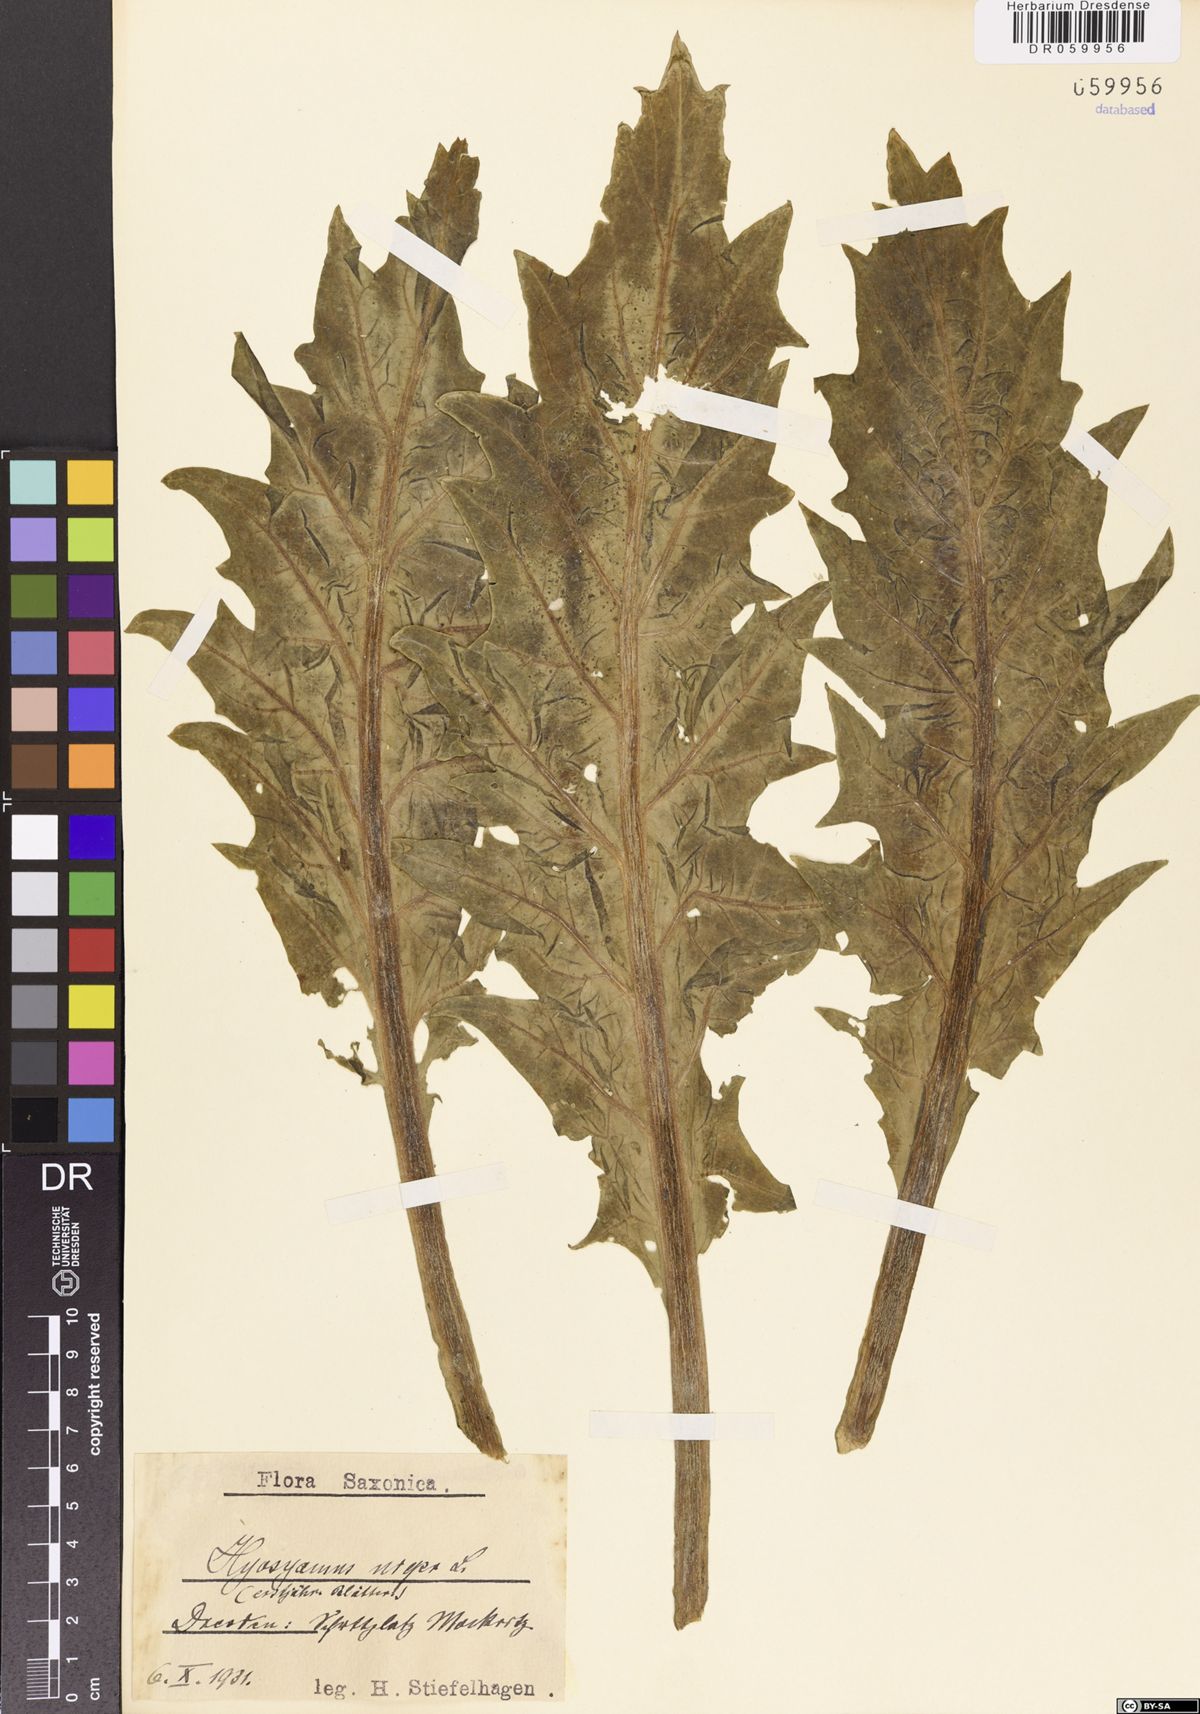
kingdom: Plantae
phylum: Tracheophyta
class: Magnoliopsida
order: Solanales
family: Solanaceae
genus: Hyoscyamus
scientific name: Hyoscyamus niger
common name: Henbane
